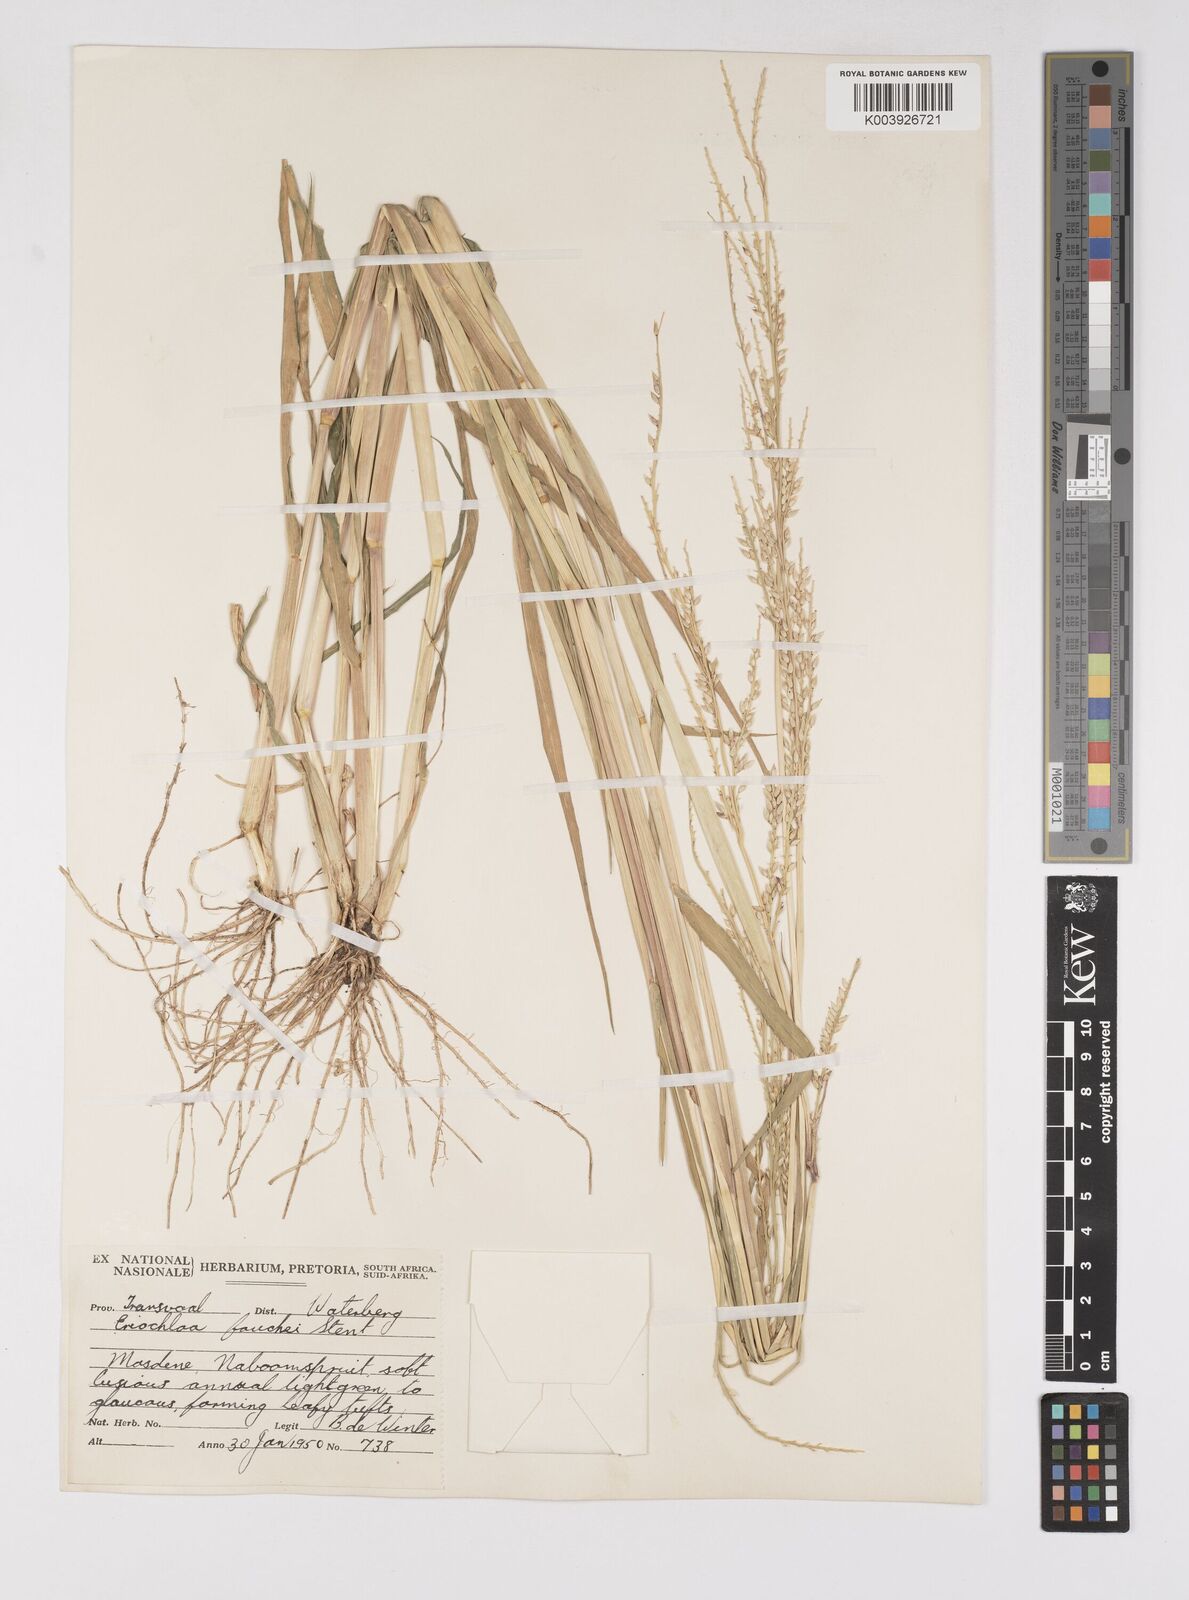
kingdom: Plantae
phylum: Tracheophyta
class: Liliopsida
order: Poales
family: Poaceae
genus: Eriochloa
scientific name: Eriochloa barbatus
